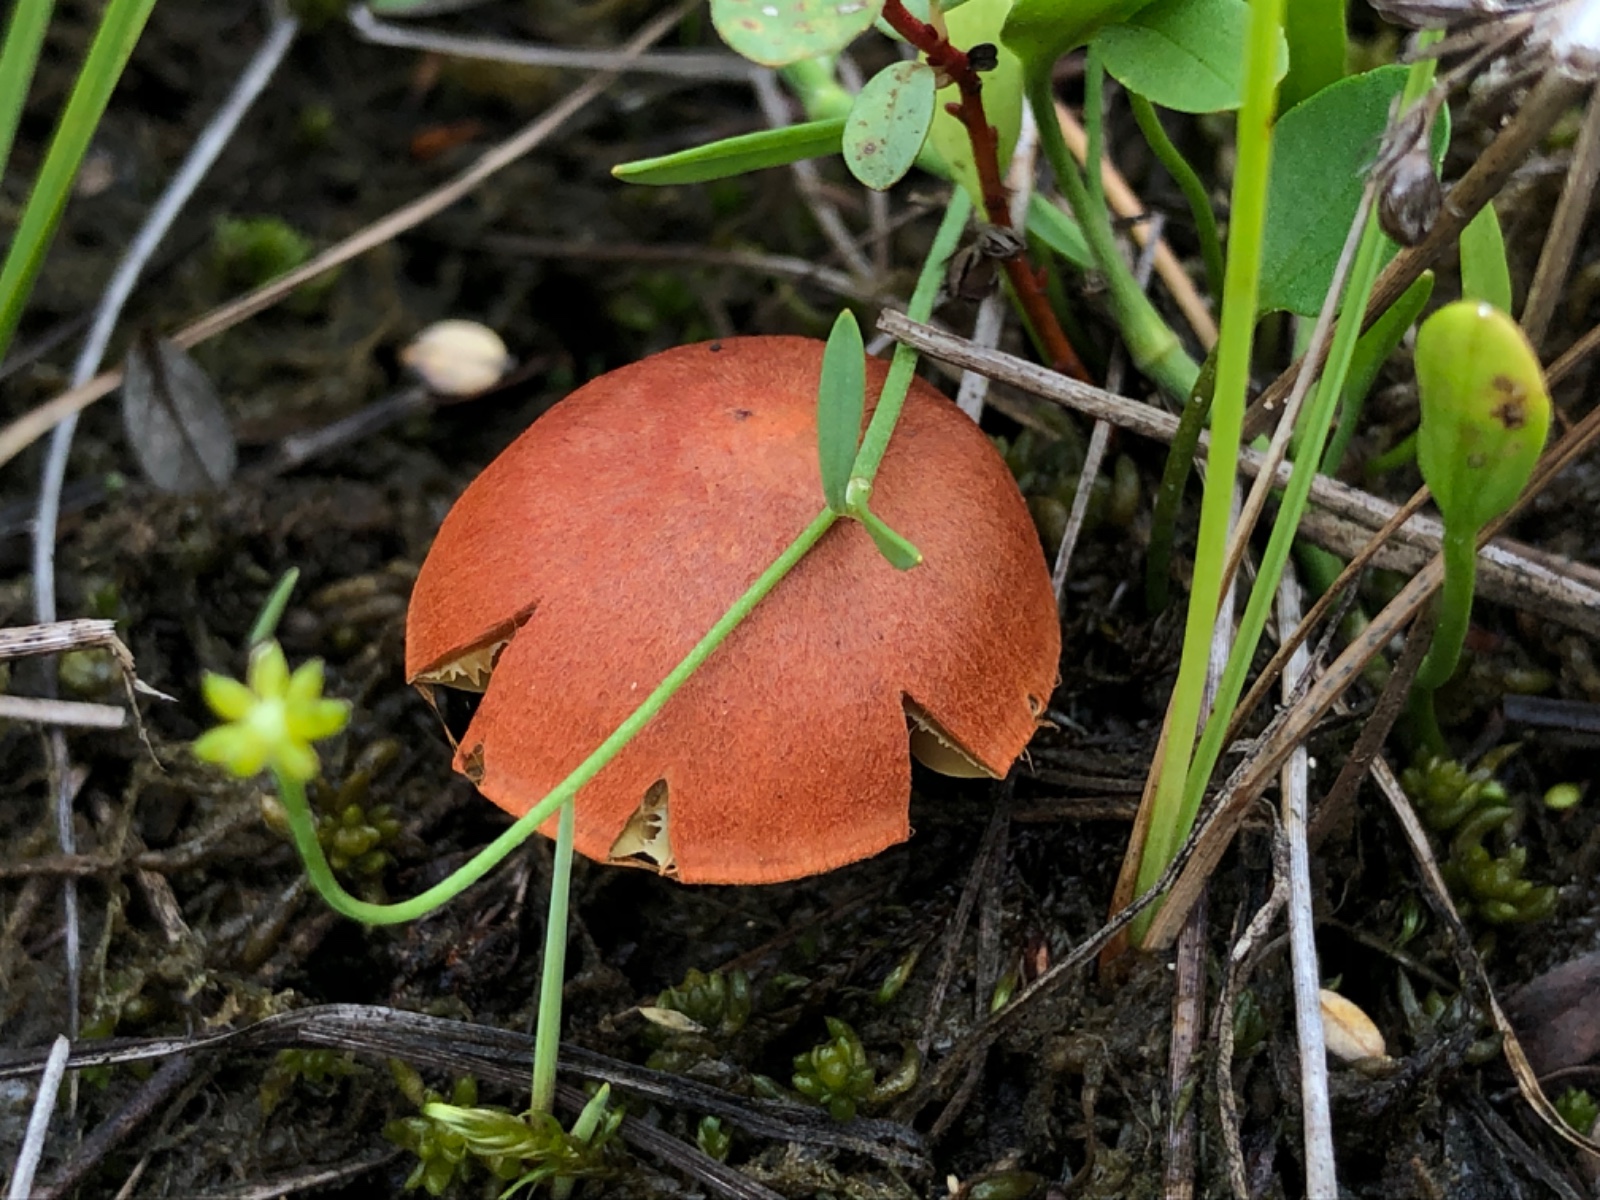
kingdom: Fungi
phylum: Basidiomycota
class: Agaricomycetes
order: Agaricales
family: Cortinariaceae
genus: Cortinarius
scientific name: Cortinarius uliginosus
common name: mose-slørhat
